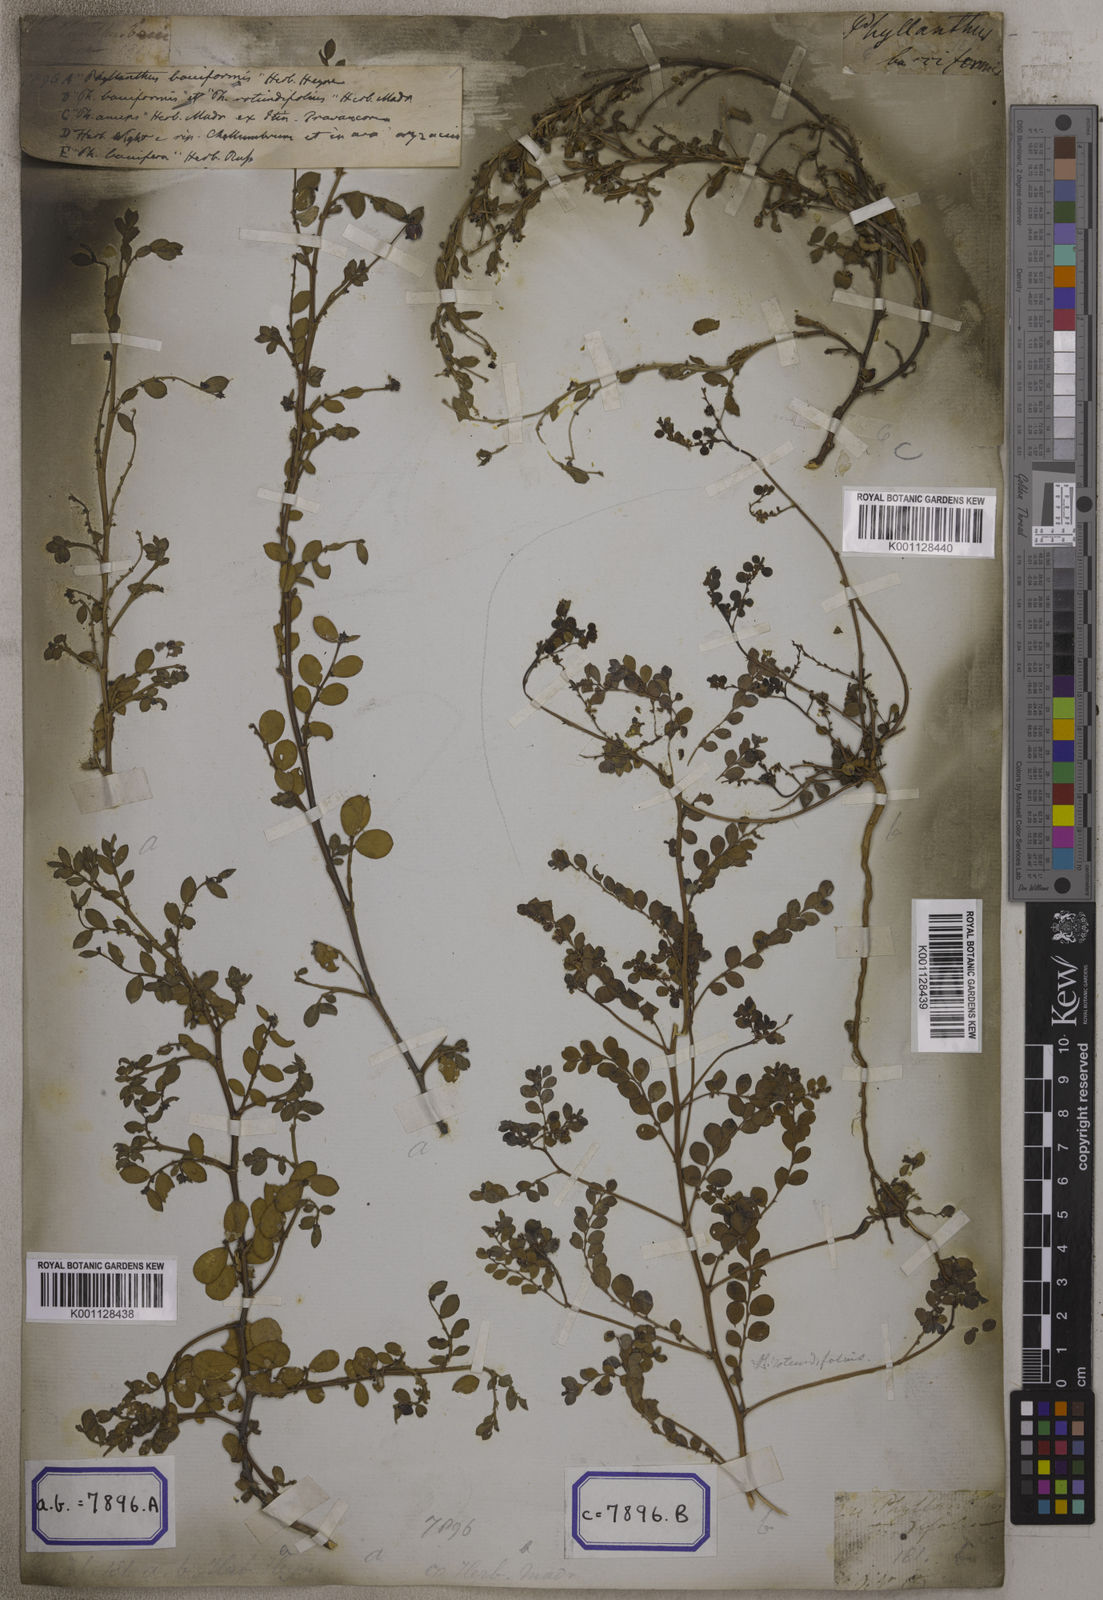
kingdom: Plantae
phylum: Tracheophyta
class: Magnoliopsida
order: Malpighiales
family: Euphorbiaceae
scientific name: Euphorbiaceae
